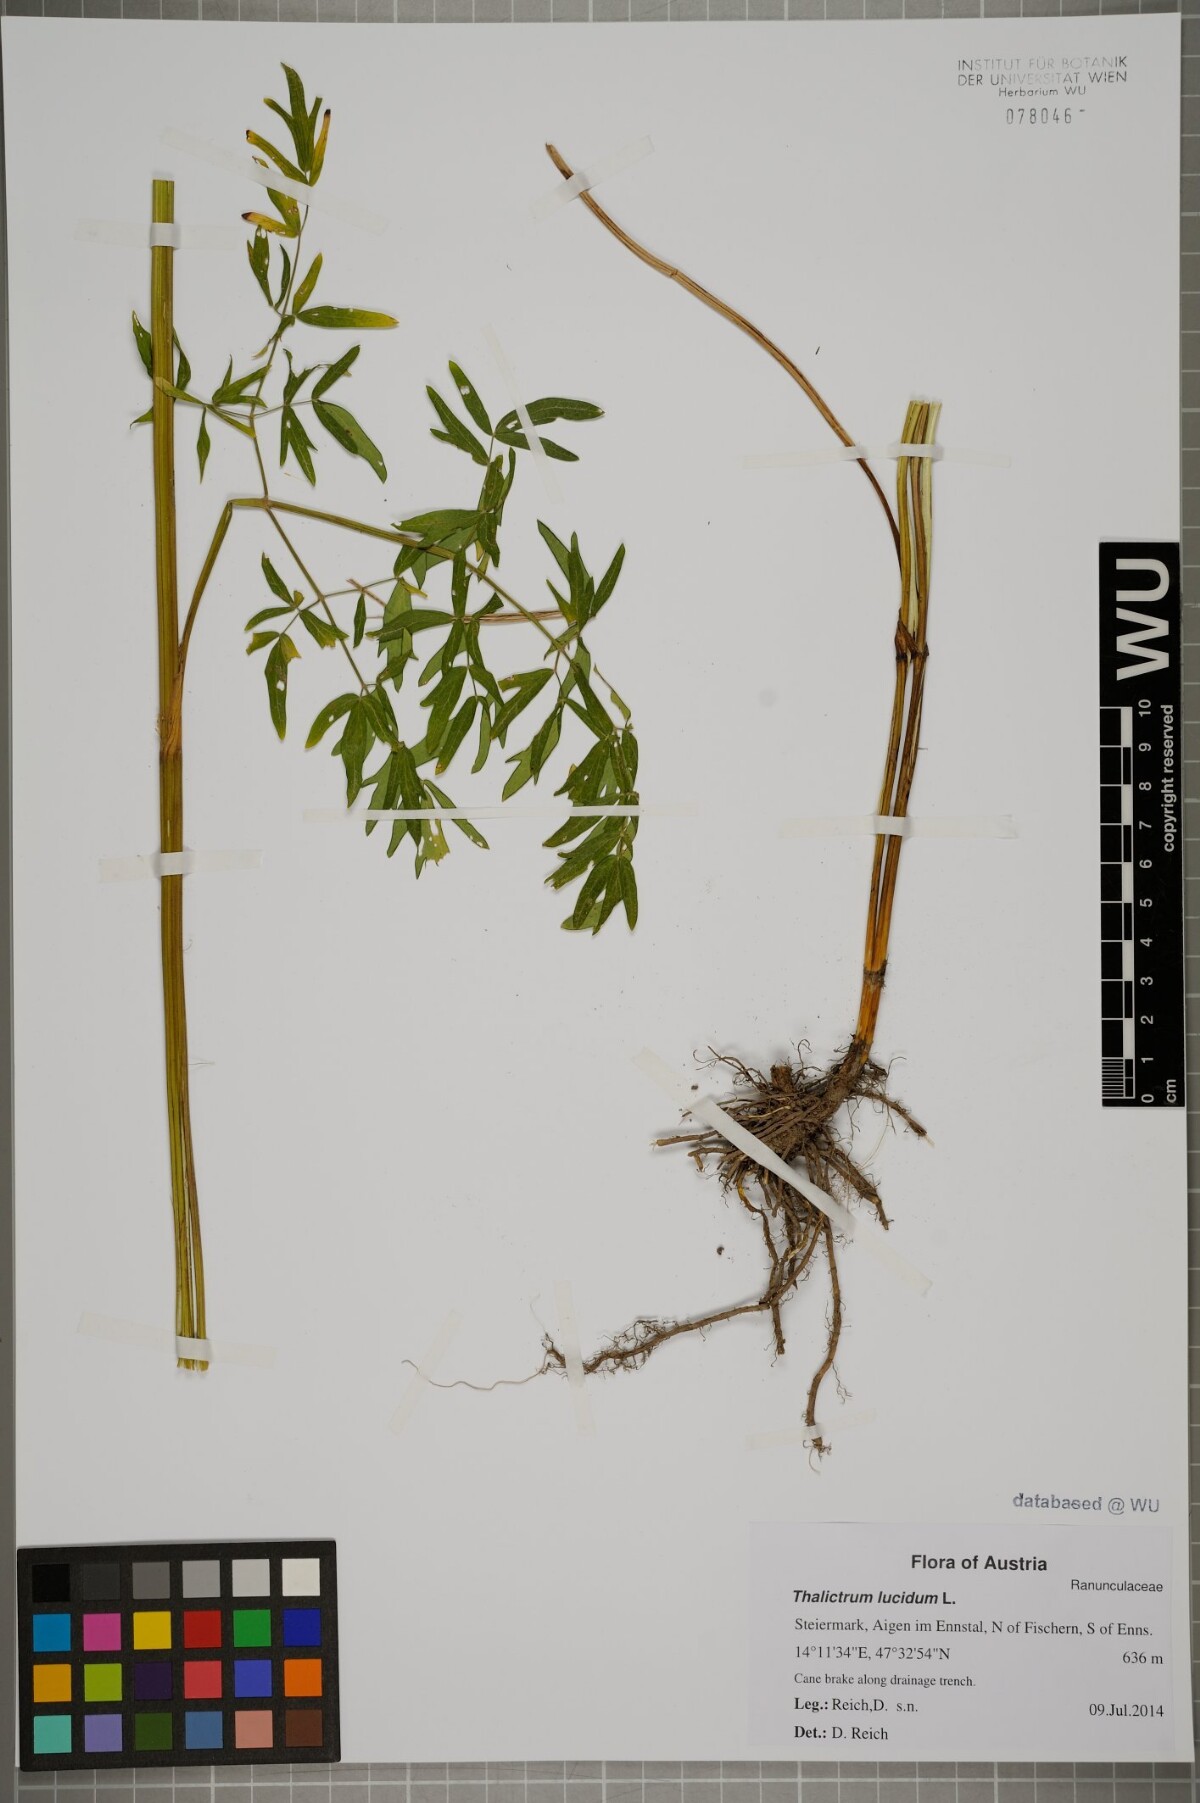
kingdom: Plantae
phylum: Tracheophyta
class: Magnoliopsida
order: Ranunculales
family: Ranunculaceae
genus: Thalictrum
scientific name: Thalictrum lucidum
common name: Shining meadow-rue
